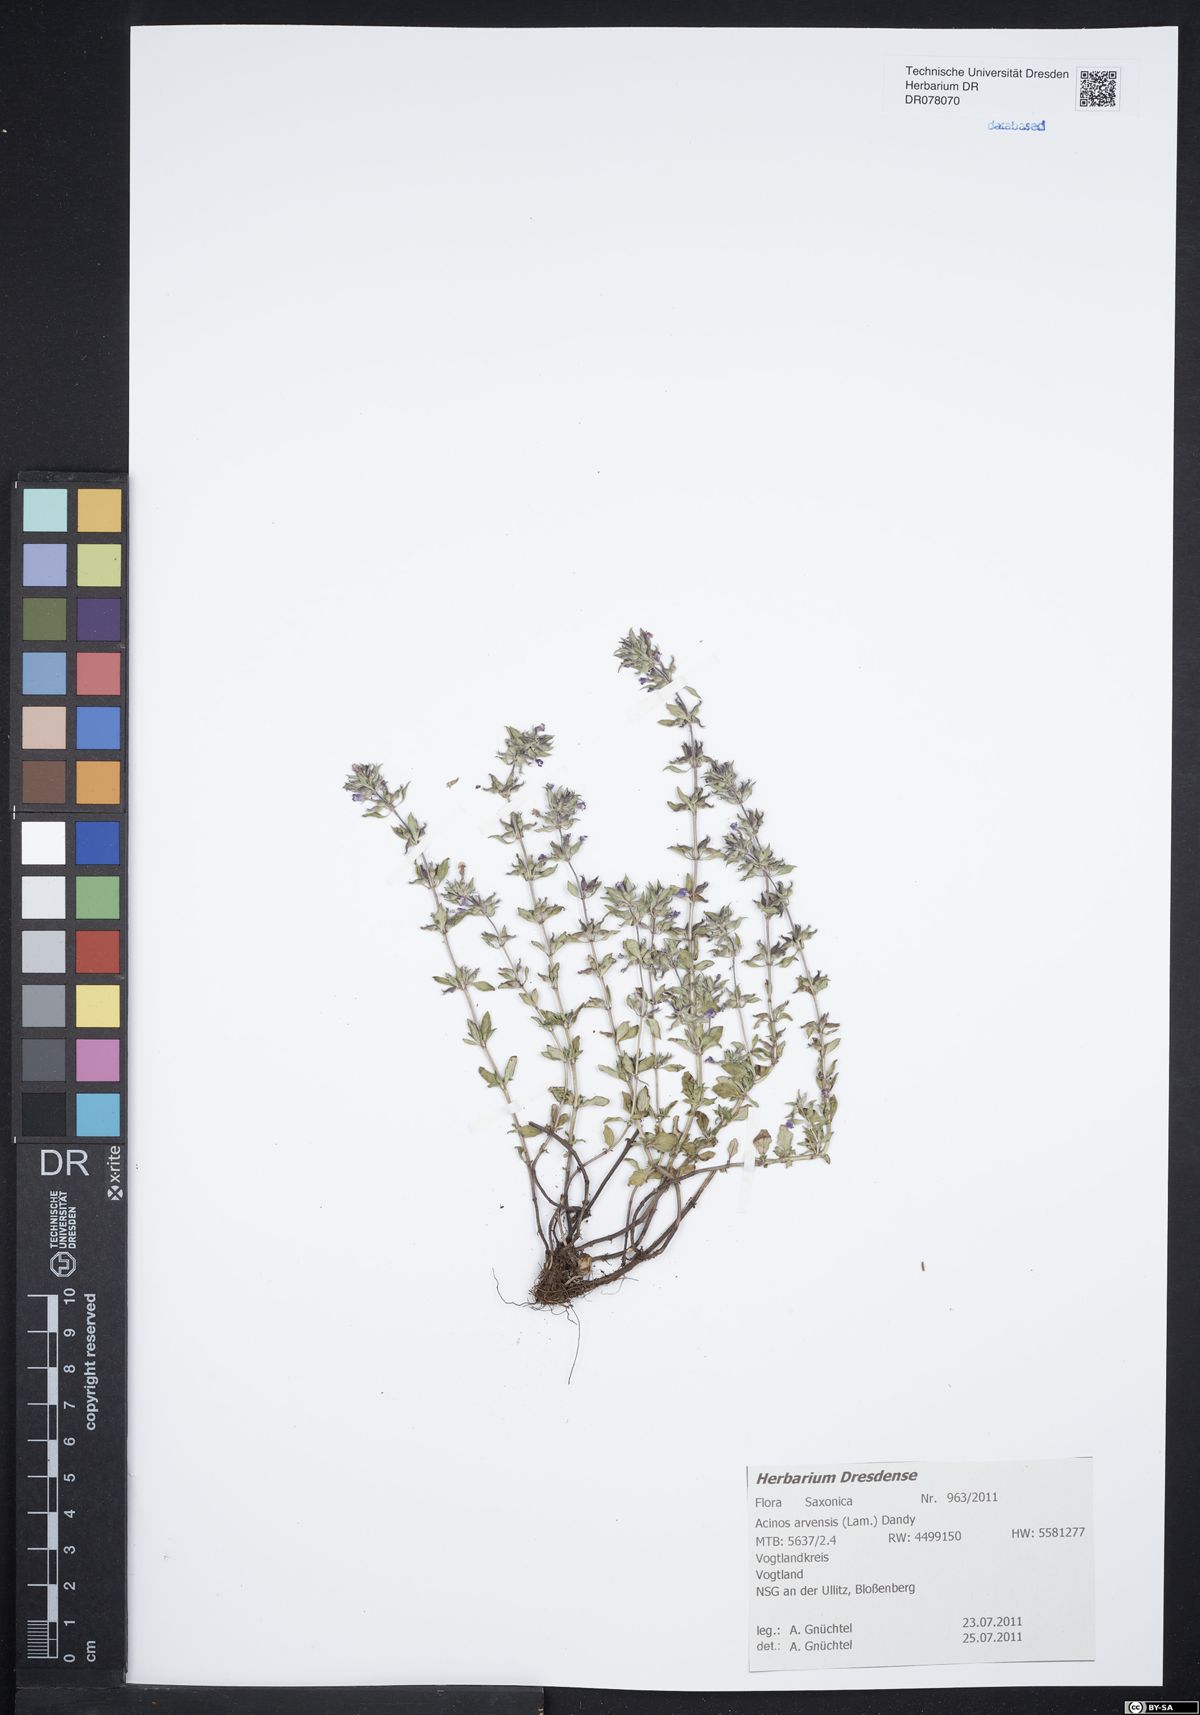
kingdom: Plantae
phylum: Tracheophyta
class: Magnoliopsida
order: Lamiales
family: Lamiaceae
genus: Clinopodium
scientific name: Clinopodium acinos
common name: Basil thyme
